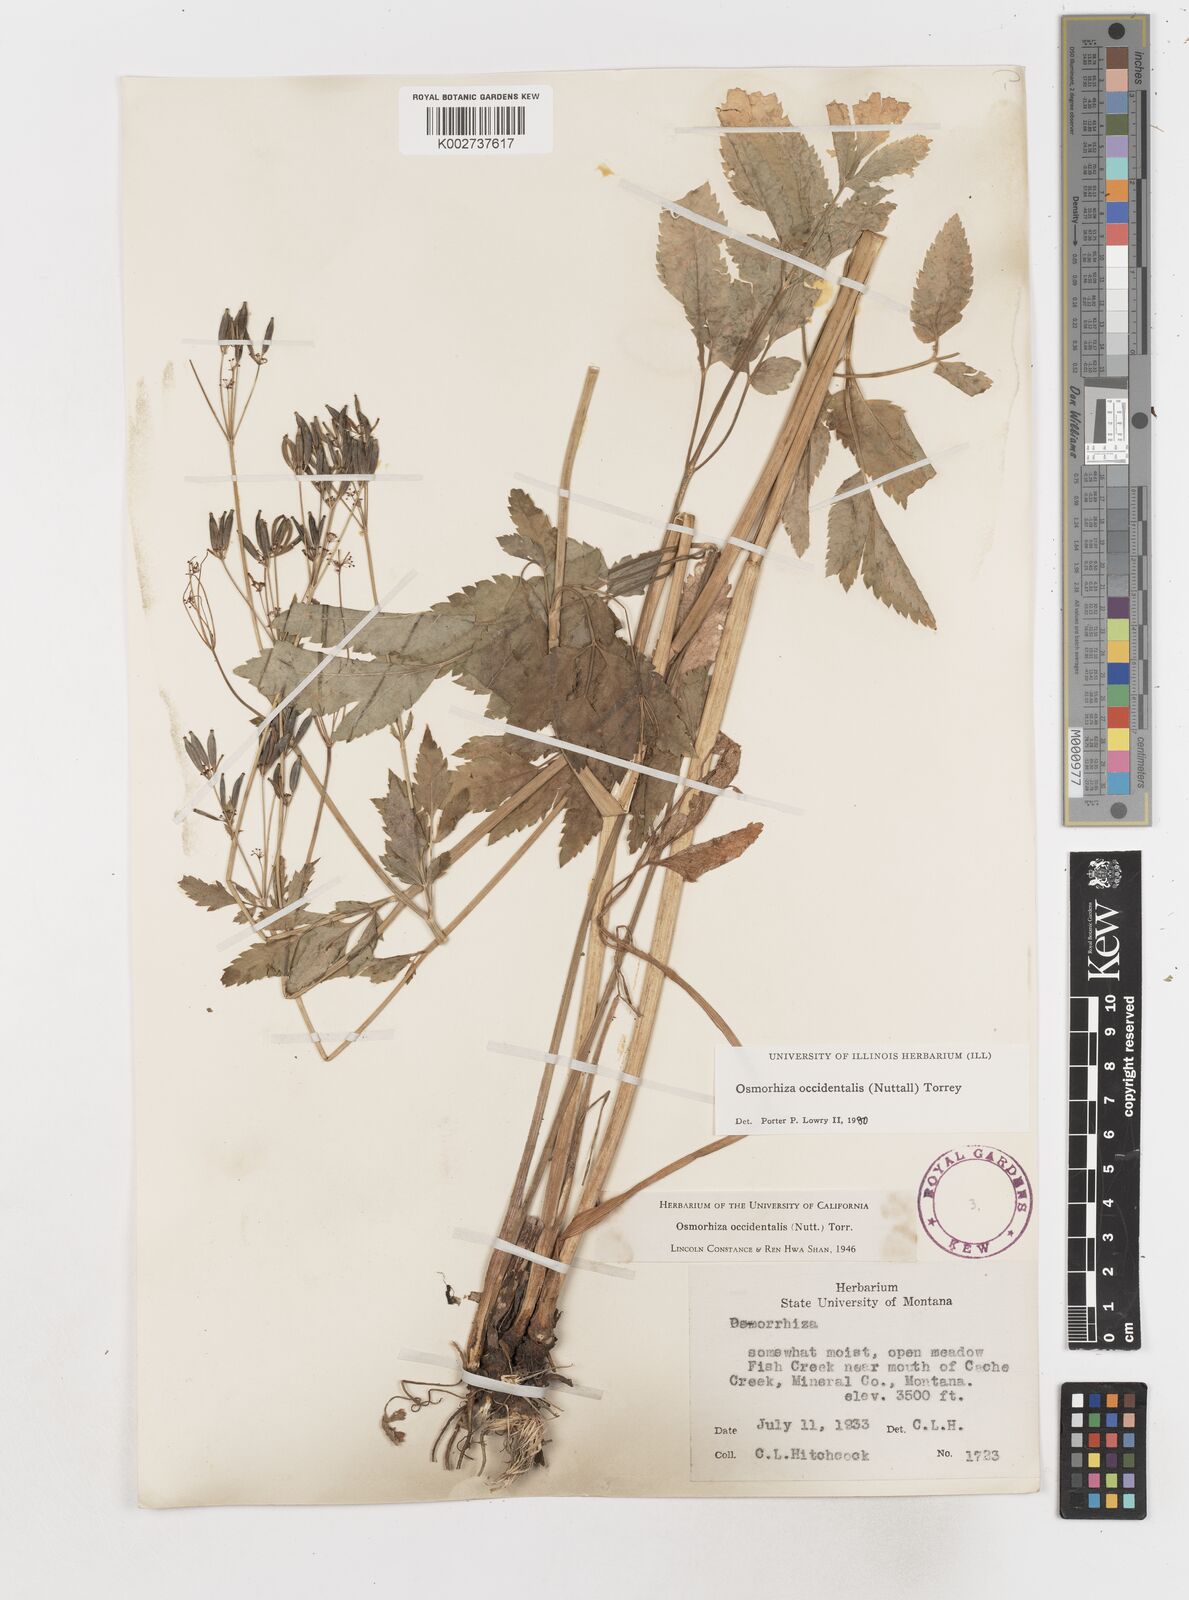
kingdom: Plantae
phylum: Tracheophyta
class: Magnoliopsida
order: Apiales
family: Apiaceae
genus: Osmorhiza
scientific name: Osmorhiza occidentalis
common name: Western sweet cicely
